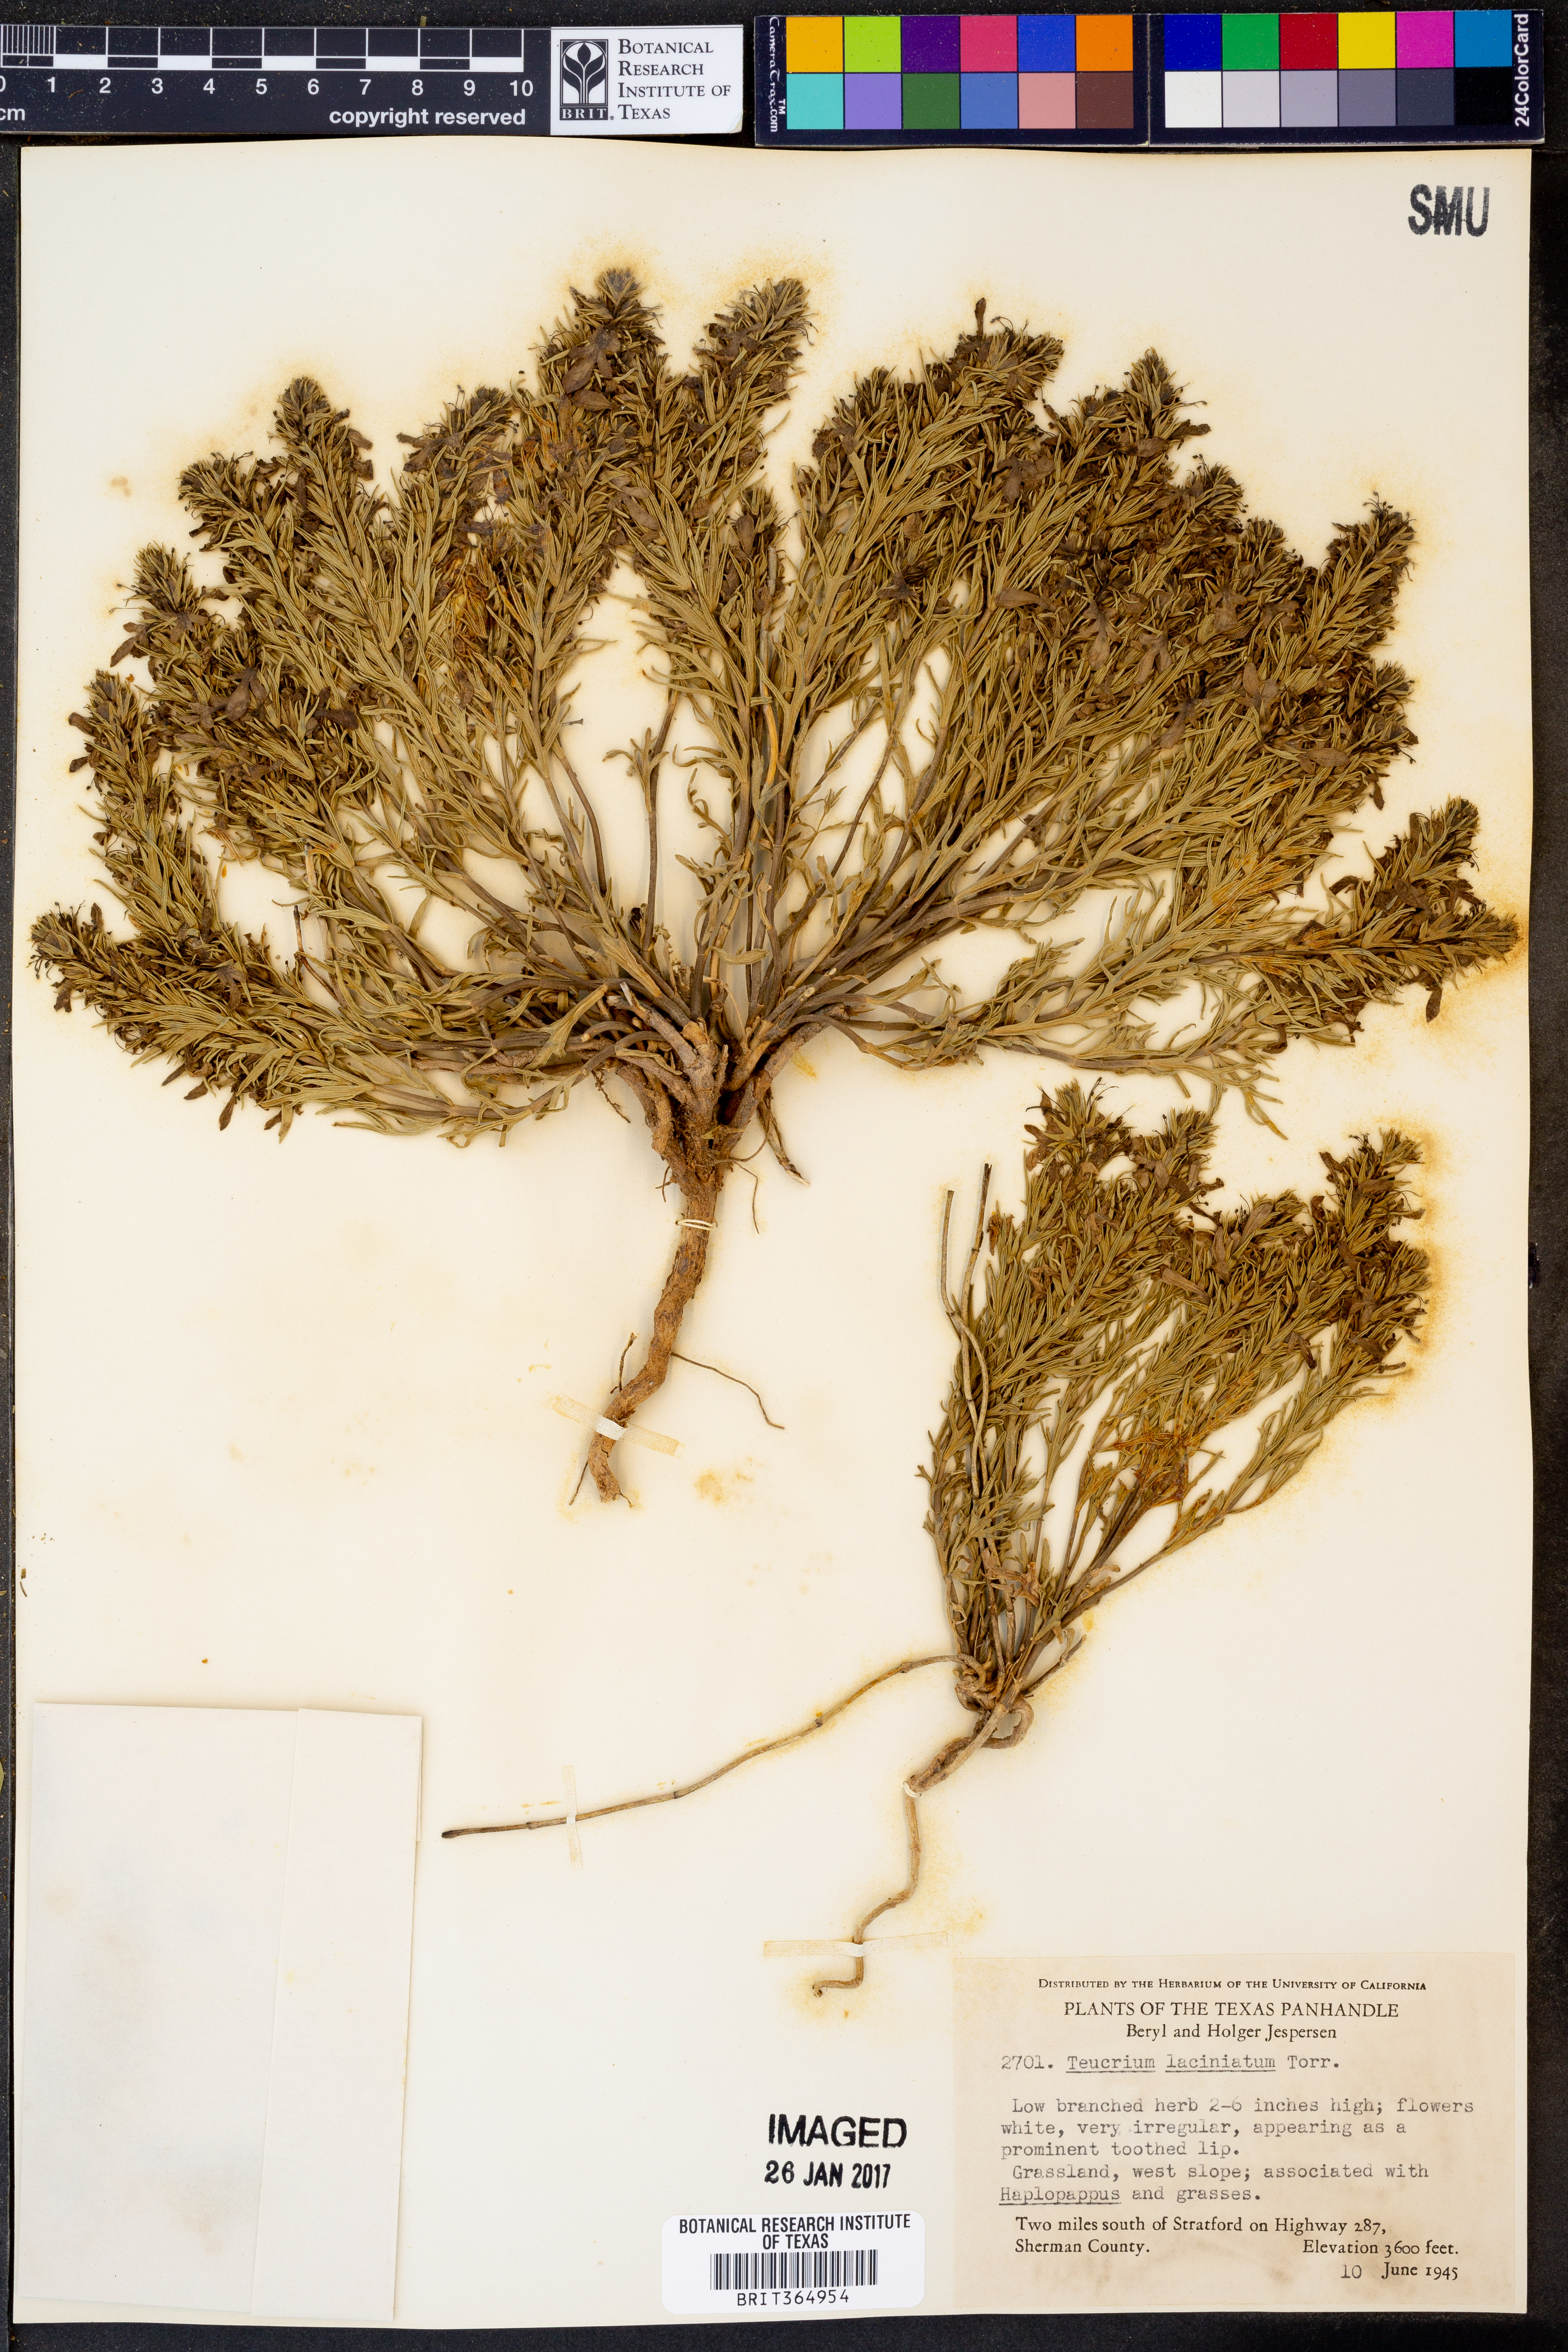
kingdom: Plantae
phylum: Tracheophyta
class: Magnoliopsida
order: Lamiales
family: Lamiaceae
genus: Teucrium
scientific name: Teucrium laciniatum
